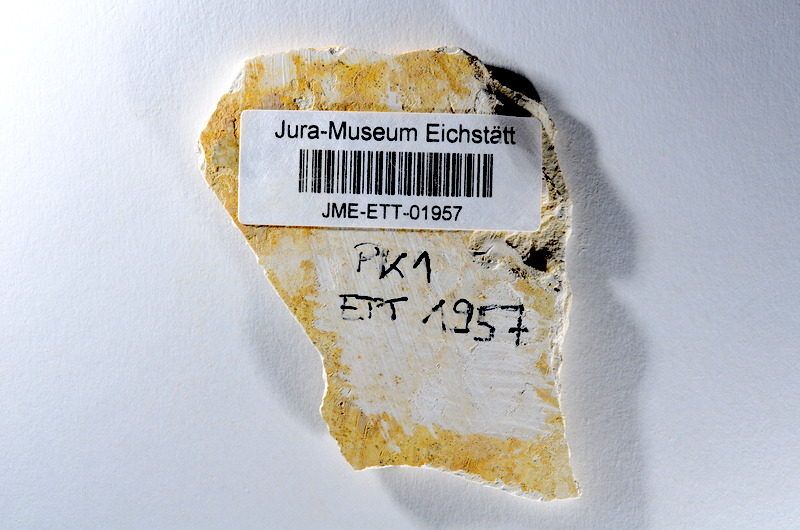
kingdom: Animalia
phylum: Chordata
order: Salmoniformes
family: Orthogonikleithridae
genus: Orthogonikleithrus
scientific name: Orthogonikleithrus hoelli
